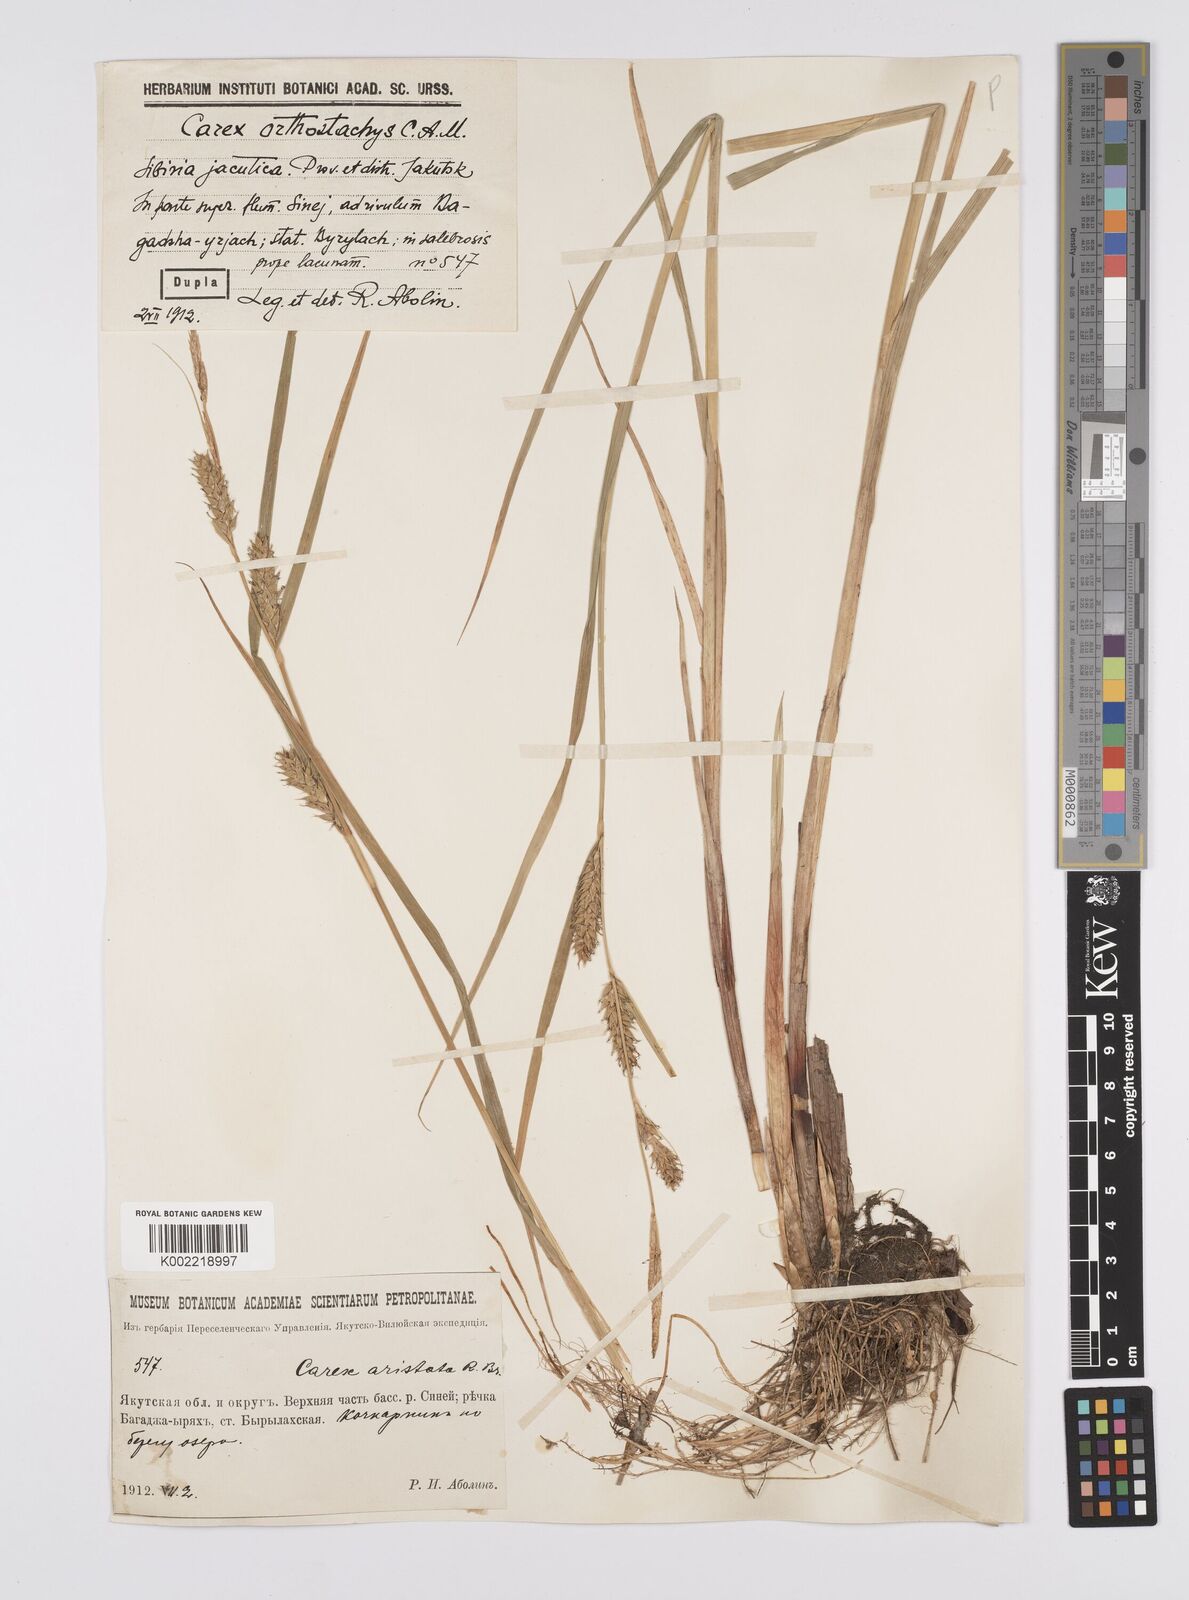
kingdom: Plantae
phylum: Tracheophyta
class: Liliopsida
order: Poales
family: Cyperaceae
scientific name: Cyperaceae
